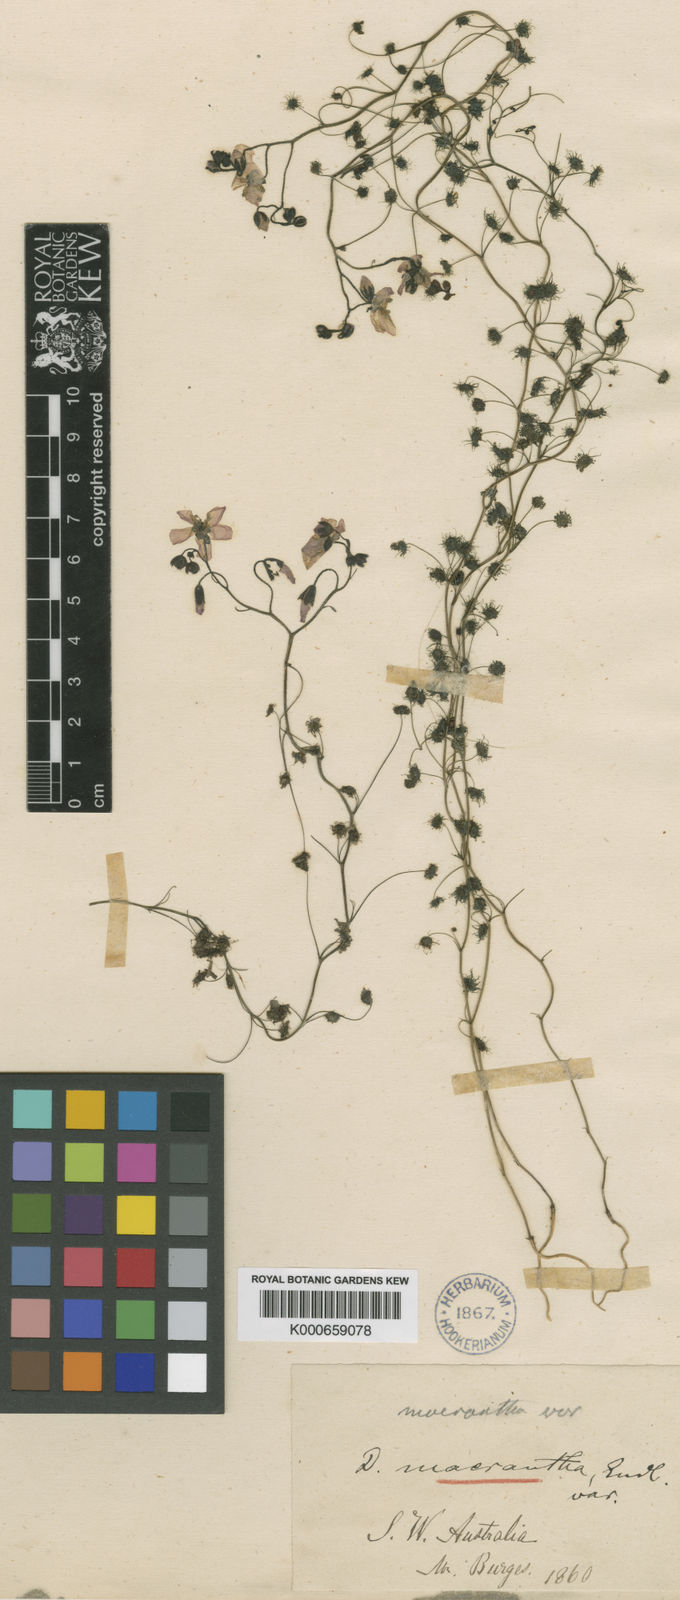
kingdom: Plantae
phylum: Tracheophyta
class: Magnoliopsida
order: Caryophyllales
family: Droseraceae
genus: Drosera
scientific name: Drosera
